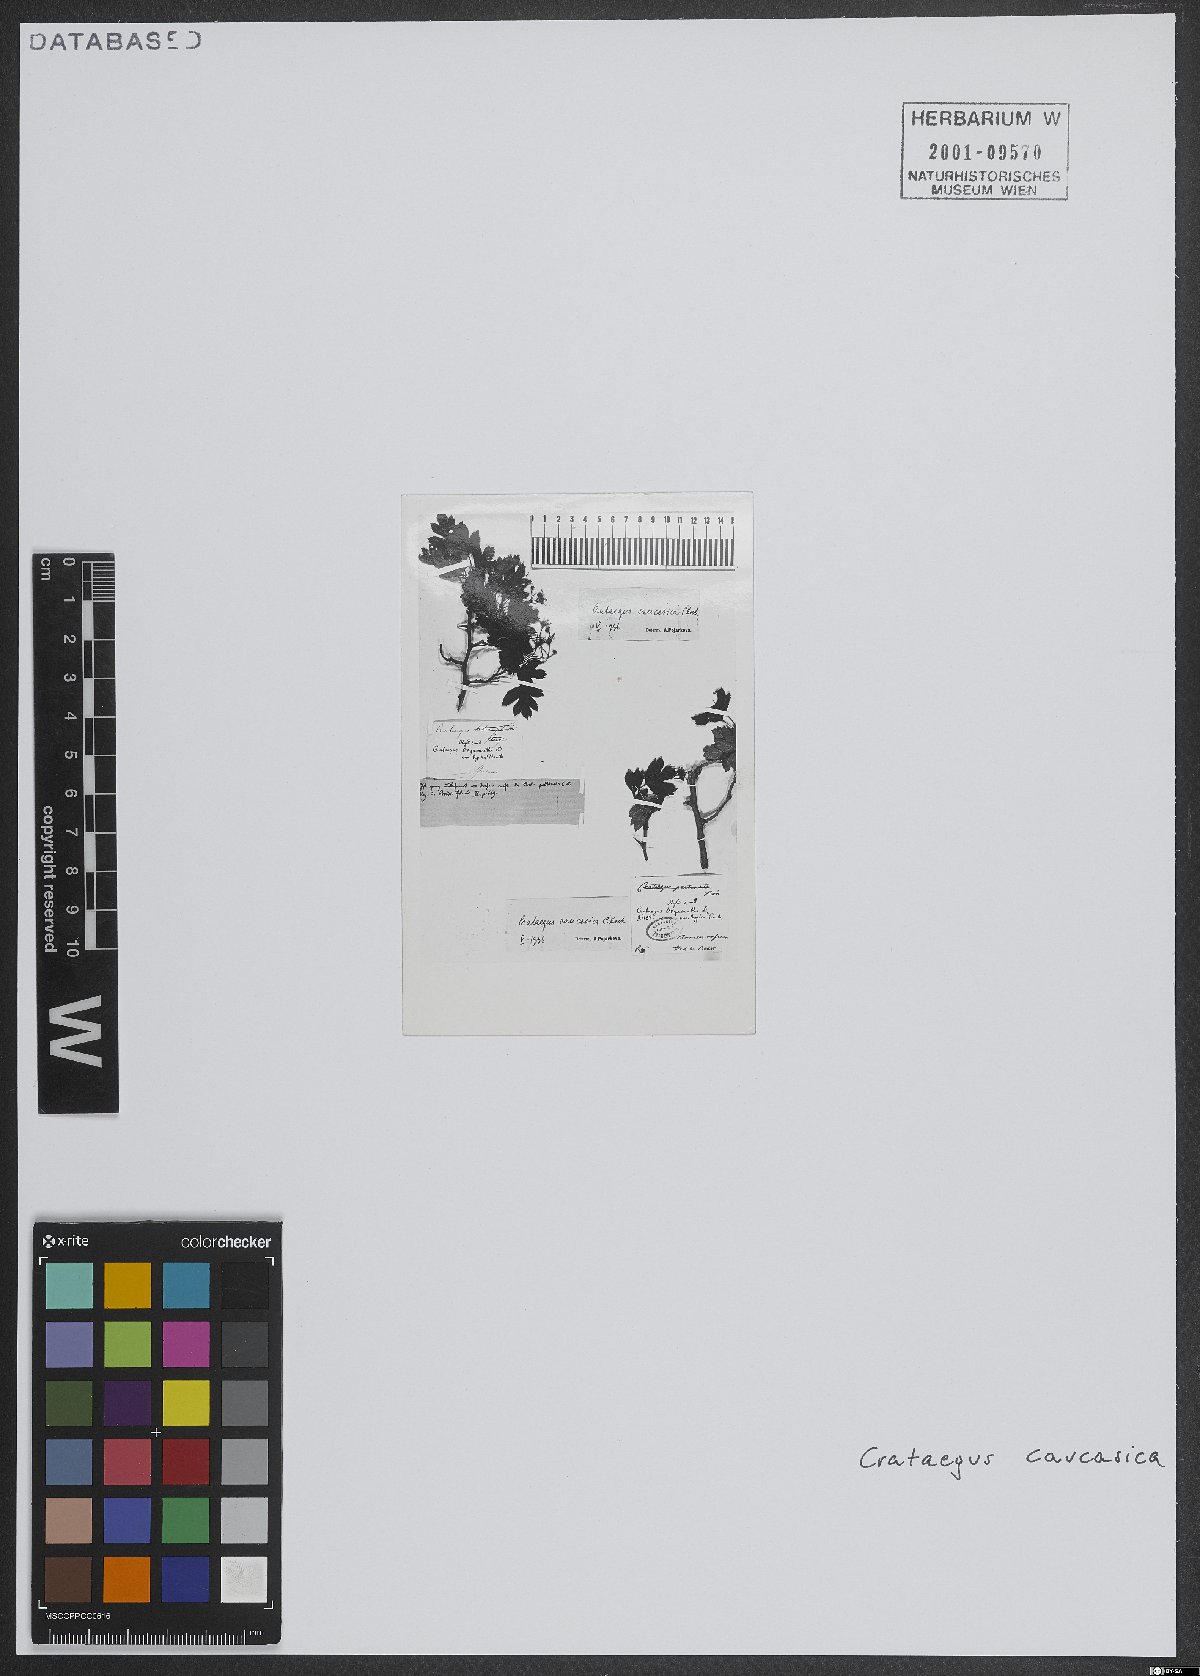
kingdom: Plantae
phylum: Tracheophyta
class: Magnoliopsida
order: Rosales
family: Rosaceae
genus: Crataegus
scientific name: Crataegus caucasica
